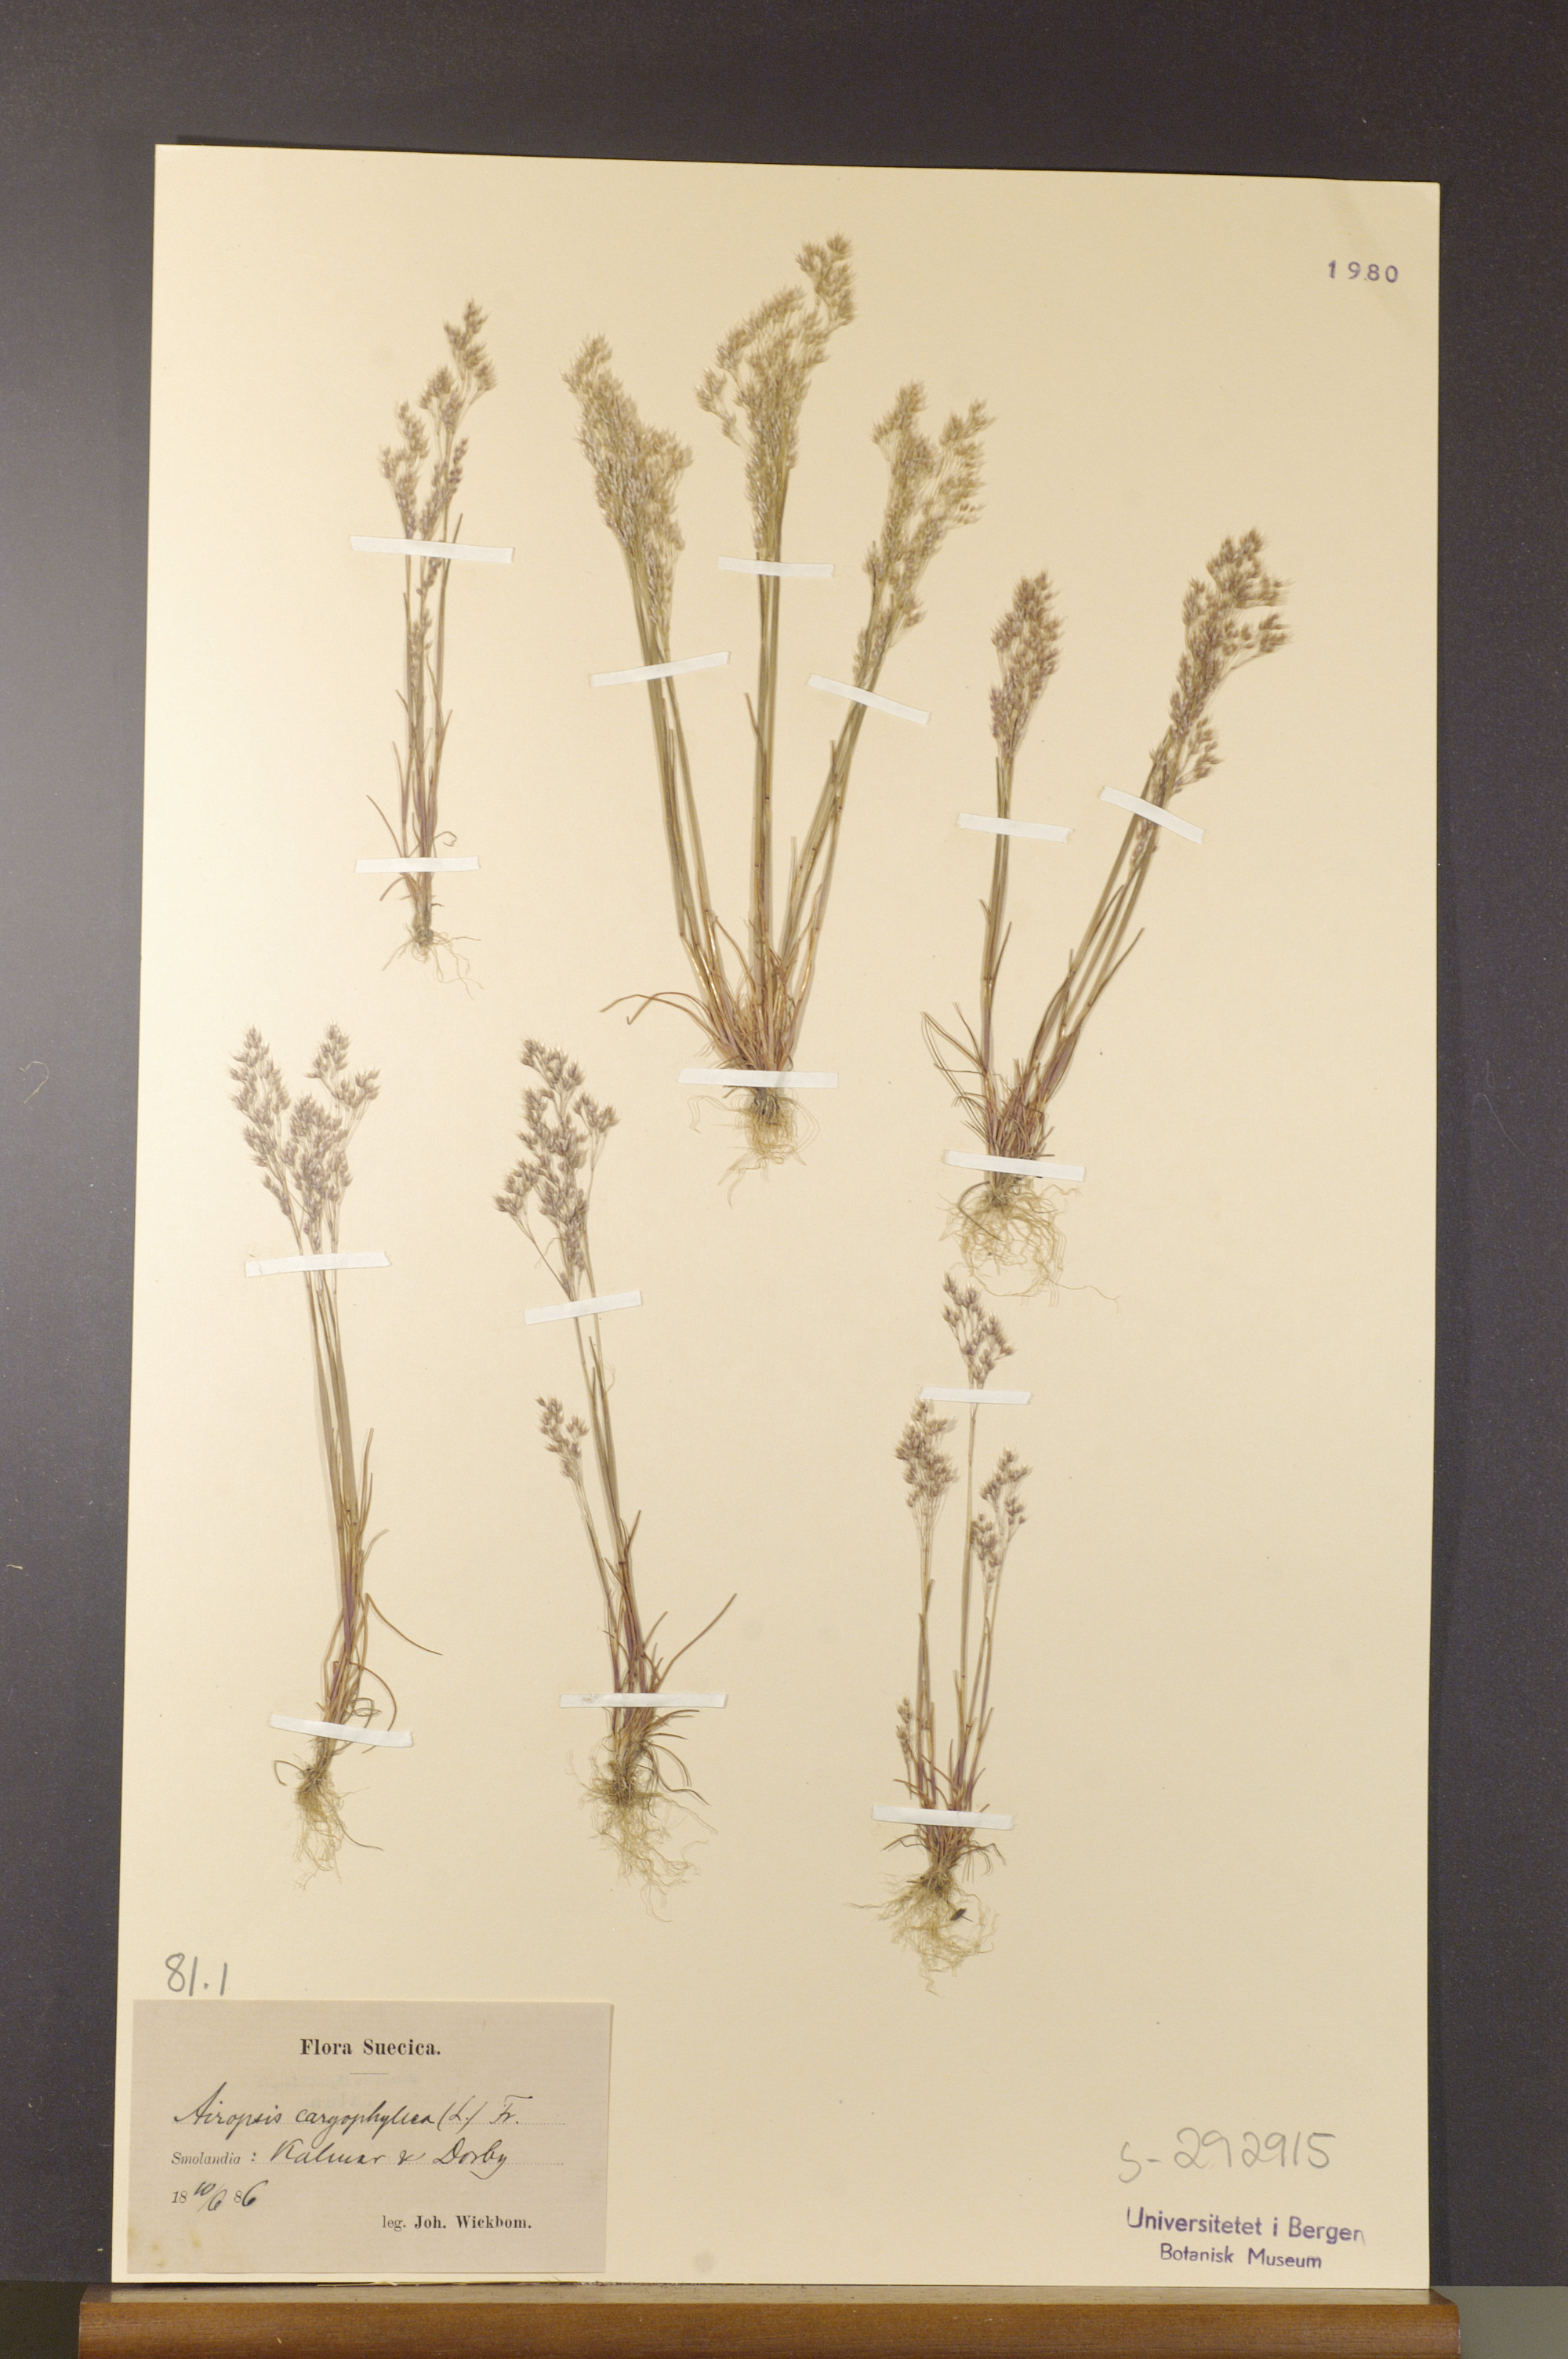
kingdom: Plantae
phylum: Tracheophyta
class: Liliopsida
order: Poales
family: Poaceae
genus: Aira
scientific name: Aira caryophyllea
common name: Silver hairgrass
